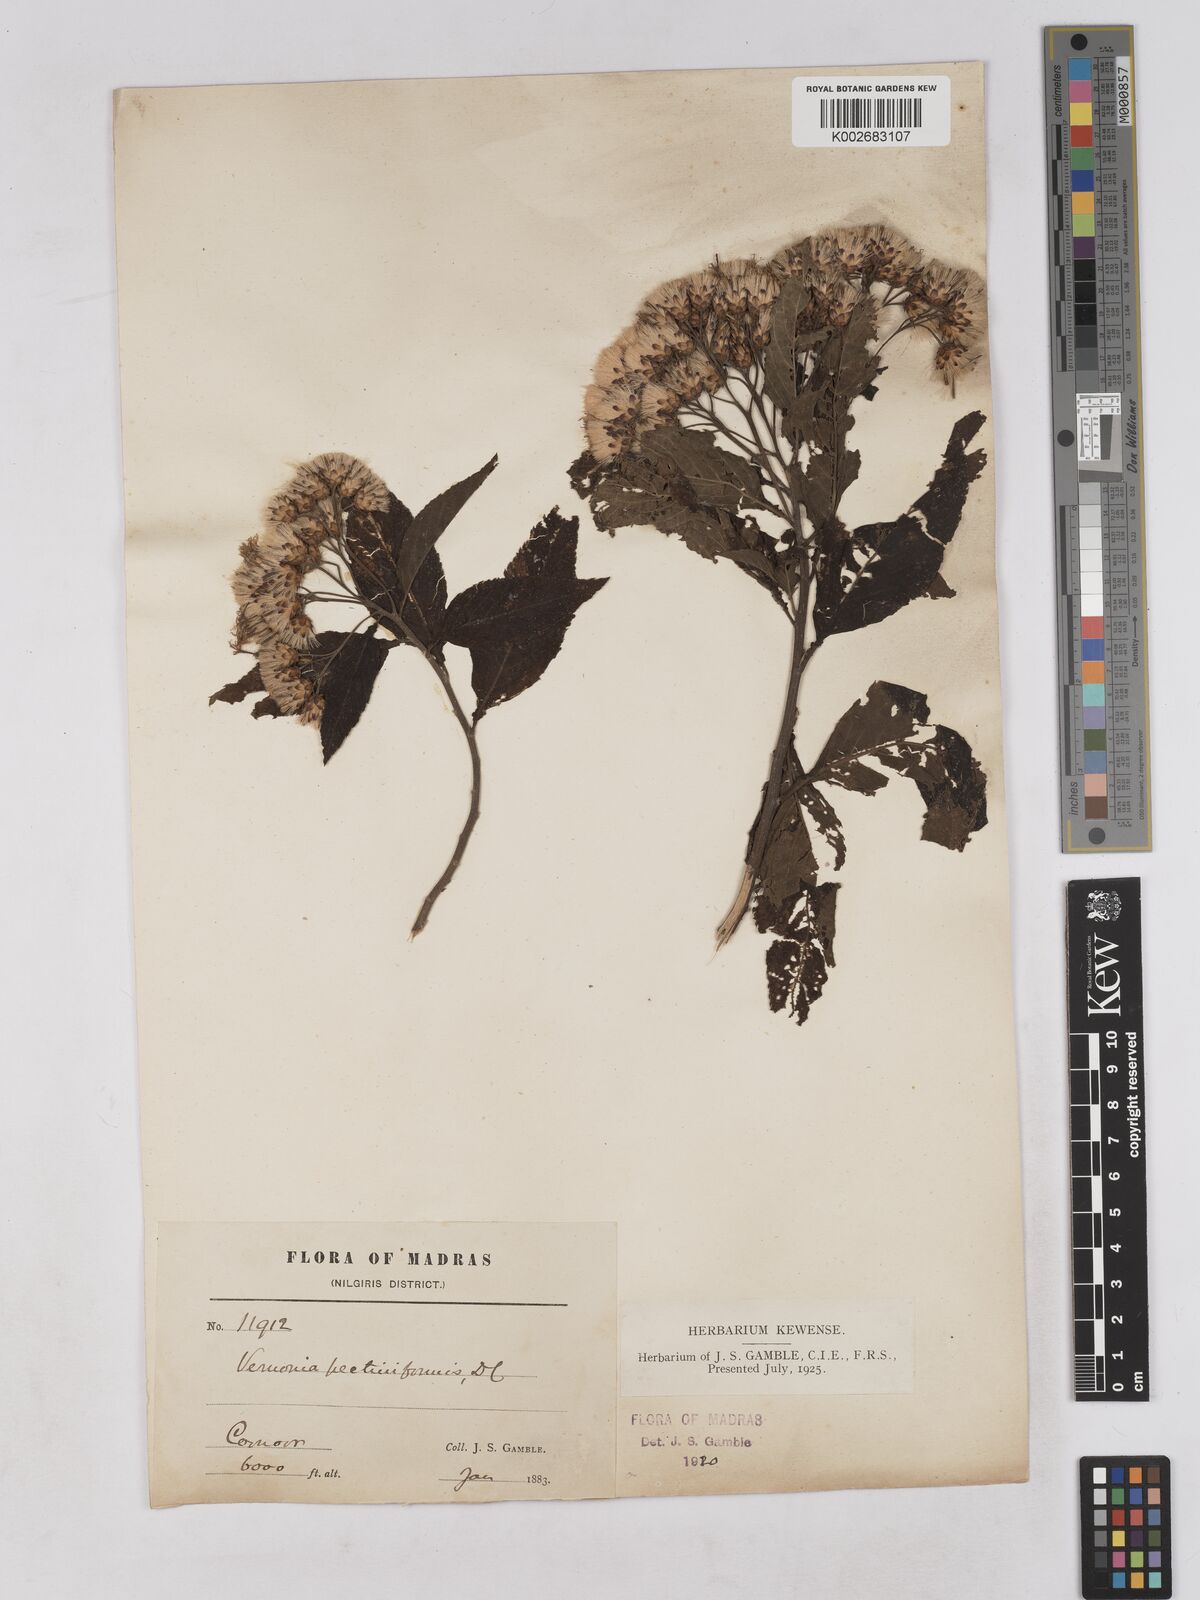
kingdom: Plantae
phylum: Tracheophyta
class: Magnoliopsida
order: Asterales
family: Asteraceae
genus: Gymnanthemum
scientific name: Gymnanthemum pectiniforme
